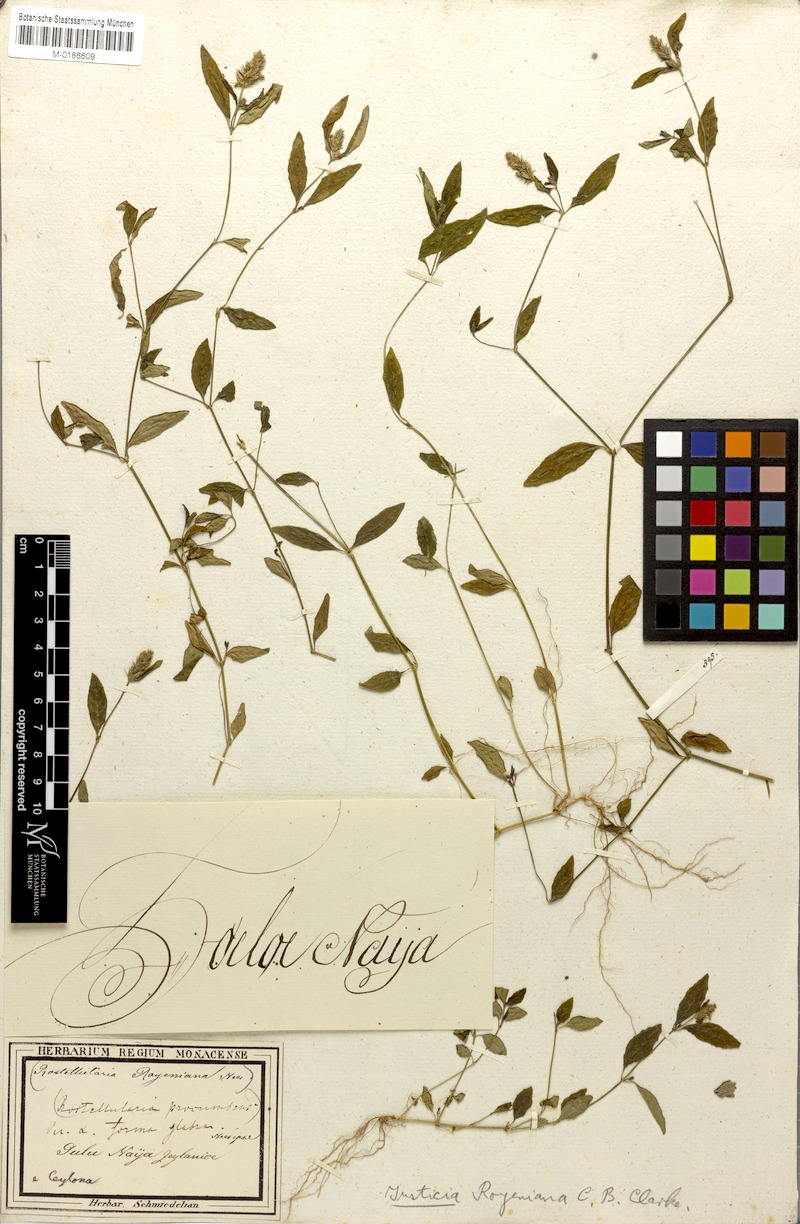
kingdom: Plantae
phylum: Tracheophyta
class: Magnoliopsida
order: Lamiales
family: Acanthaceae
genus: Rostellularia
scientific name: Rostellularia royeniana
